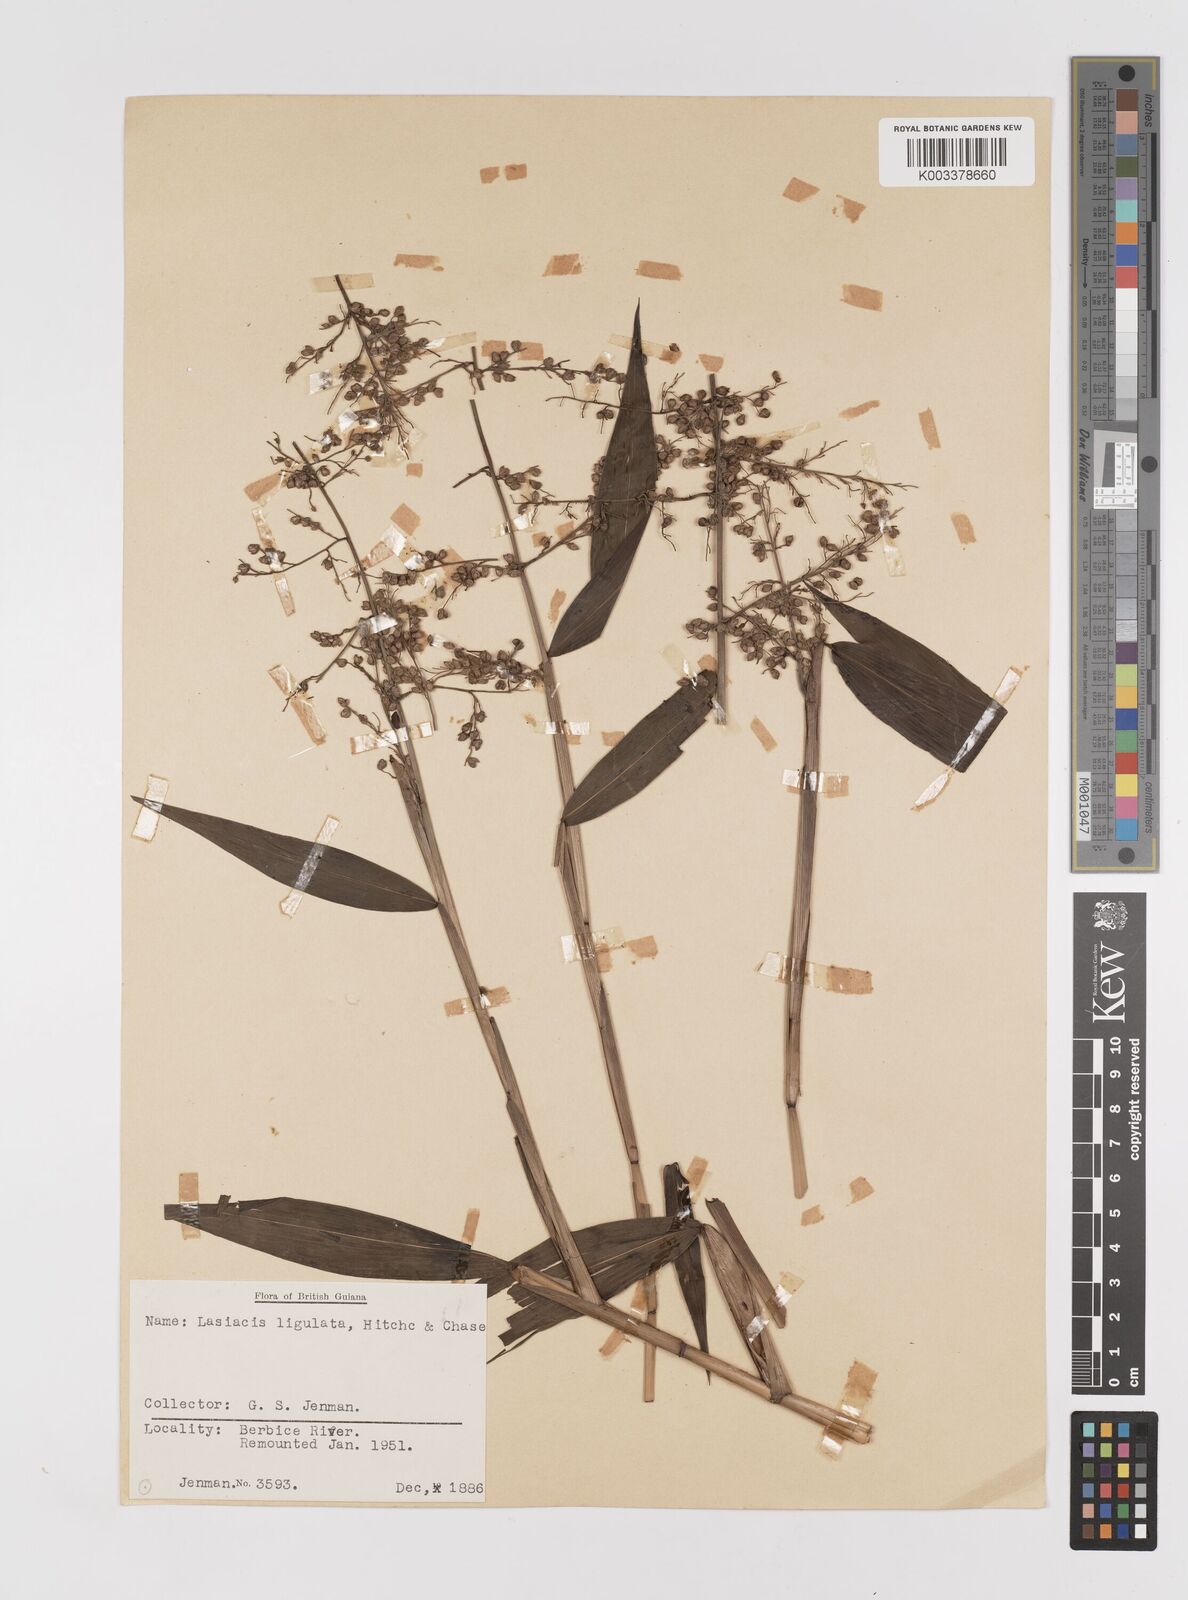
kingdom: Plantae
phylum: Tracheophyta
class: Liliopsida
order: Poales
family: Poaceae
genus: Lasiacis
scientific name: Lasiacis ligulata
